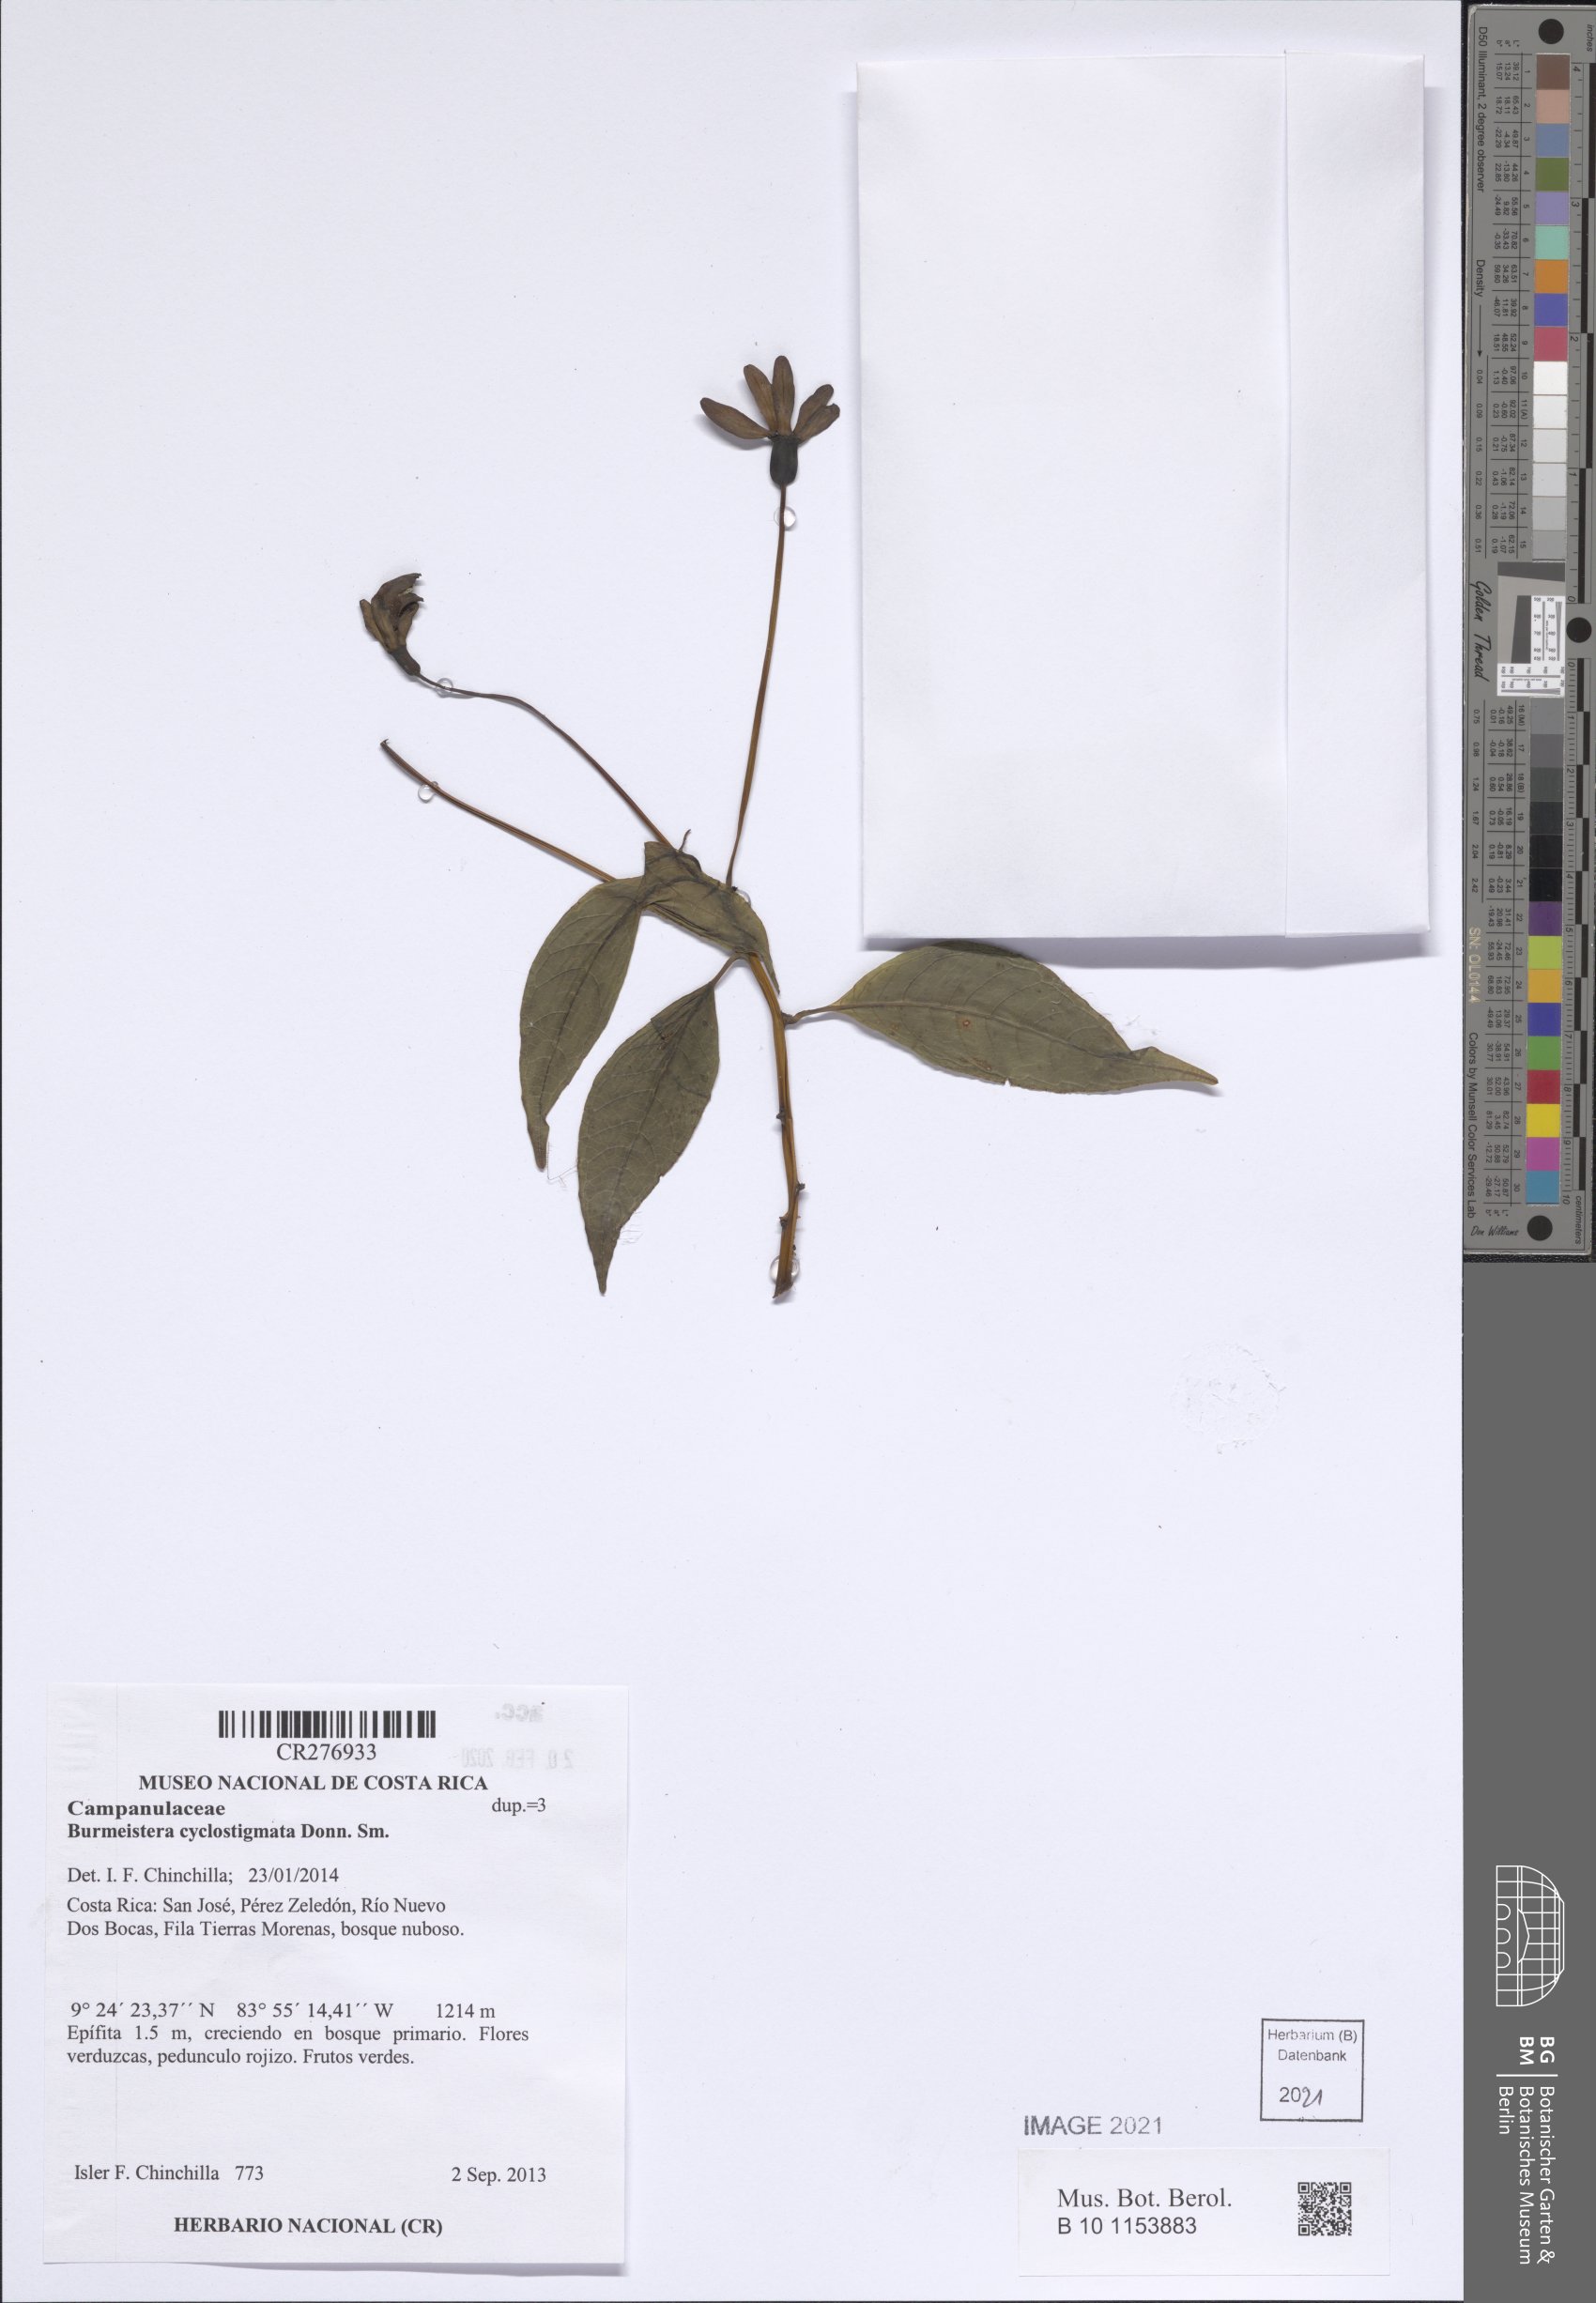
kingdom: Plantae
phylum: Tracheophyta
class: Magnoliopsida
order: Asterales
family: Campanulaceae
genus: Burmeistera
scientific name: Burmeistera cyclostigmata
